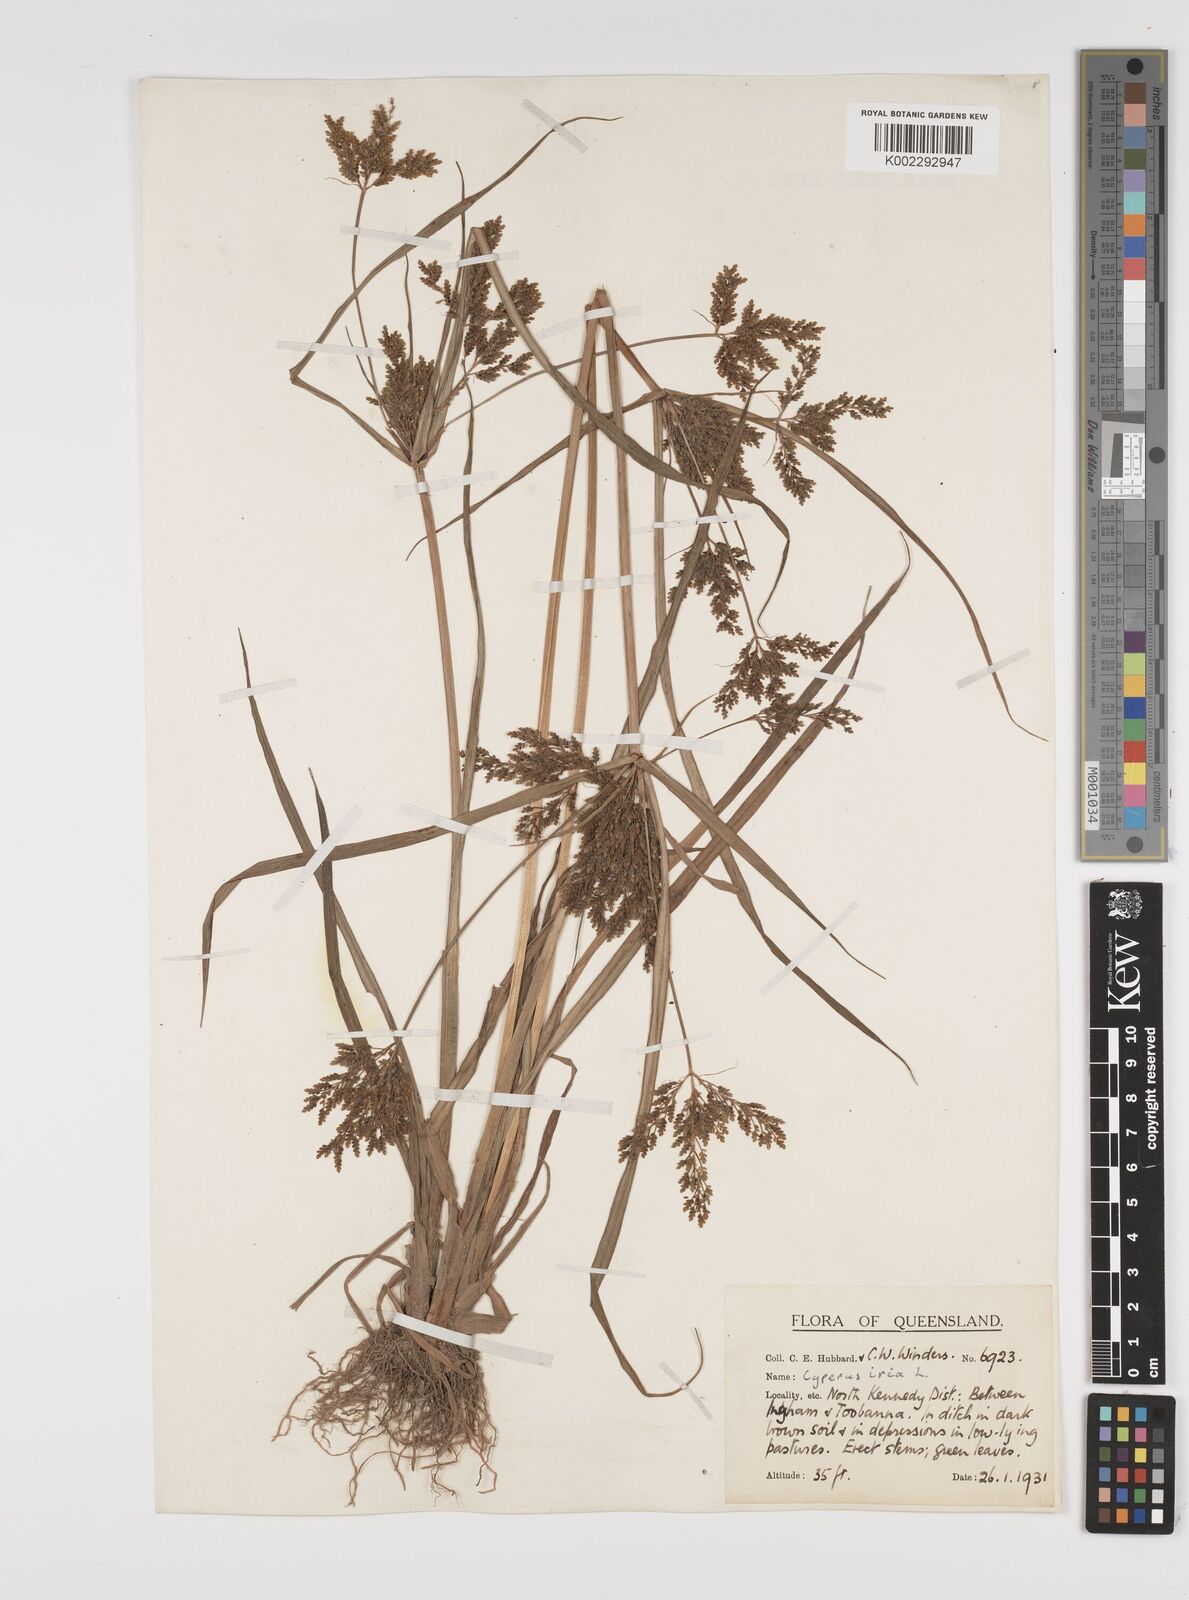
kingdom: Plantae
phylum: Tracheophyta
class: Liliopsida
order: Poales
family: Cyperaceae
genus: Cyperus
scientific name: Cyperus iria
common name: Ricefield flatsedge
